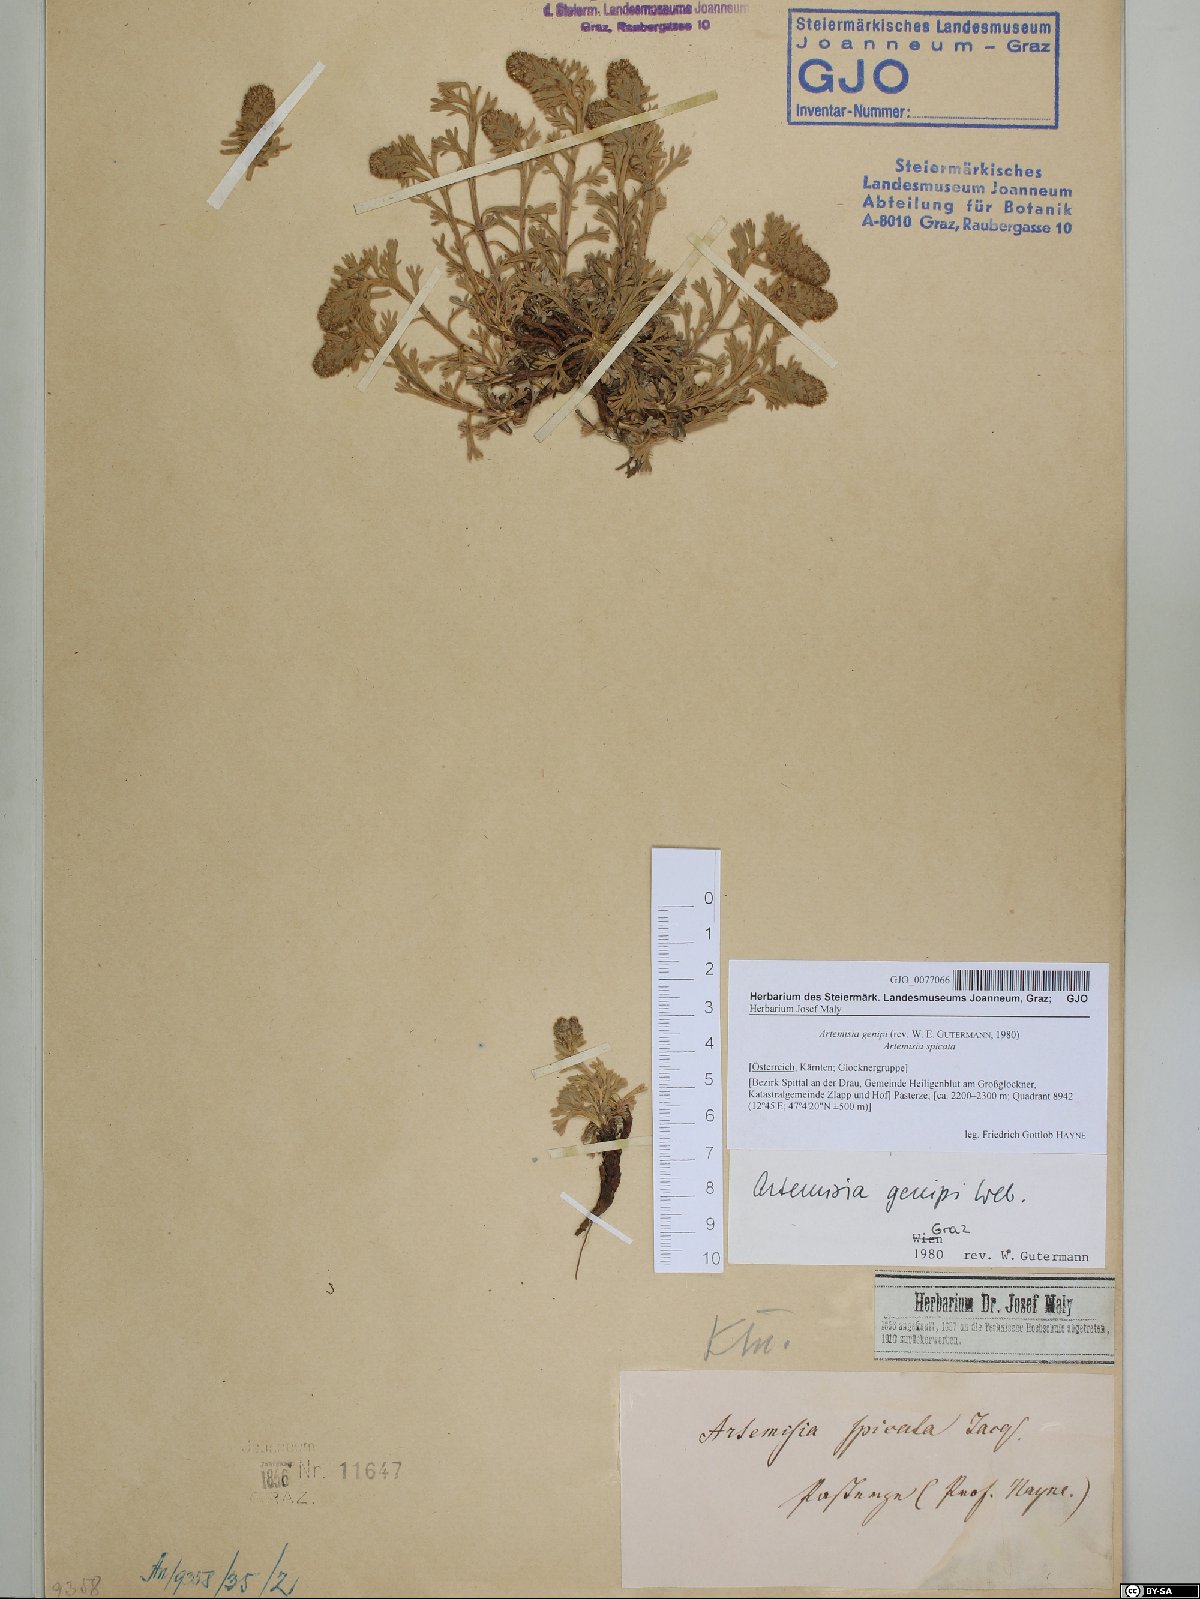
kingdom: Plantae
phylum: Tracheophyta
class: Magnoliopsida
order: Asterales
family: Asteraceae
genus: Artemisia
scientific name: Artemisia genipi
